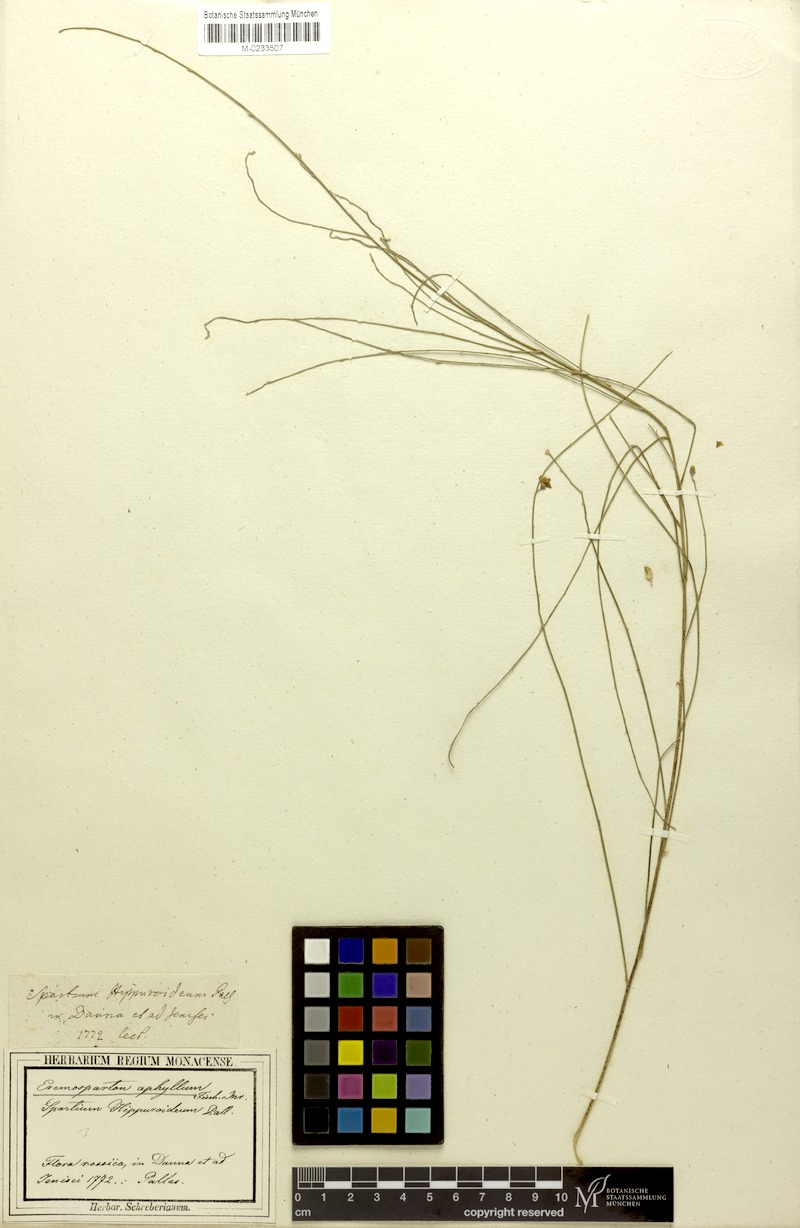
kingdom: Plantae
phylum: Tracheophyta
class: Magnoliopsida
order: Fabales
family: Fabaceae
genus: Eremosparton
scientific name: Eremosparton aphyllum
